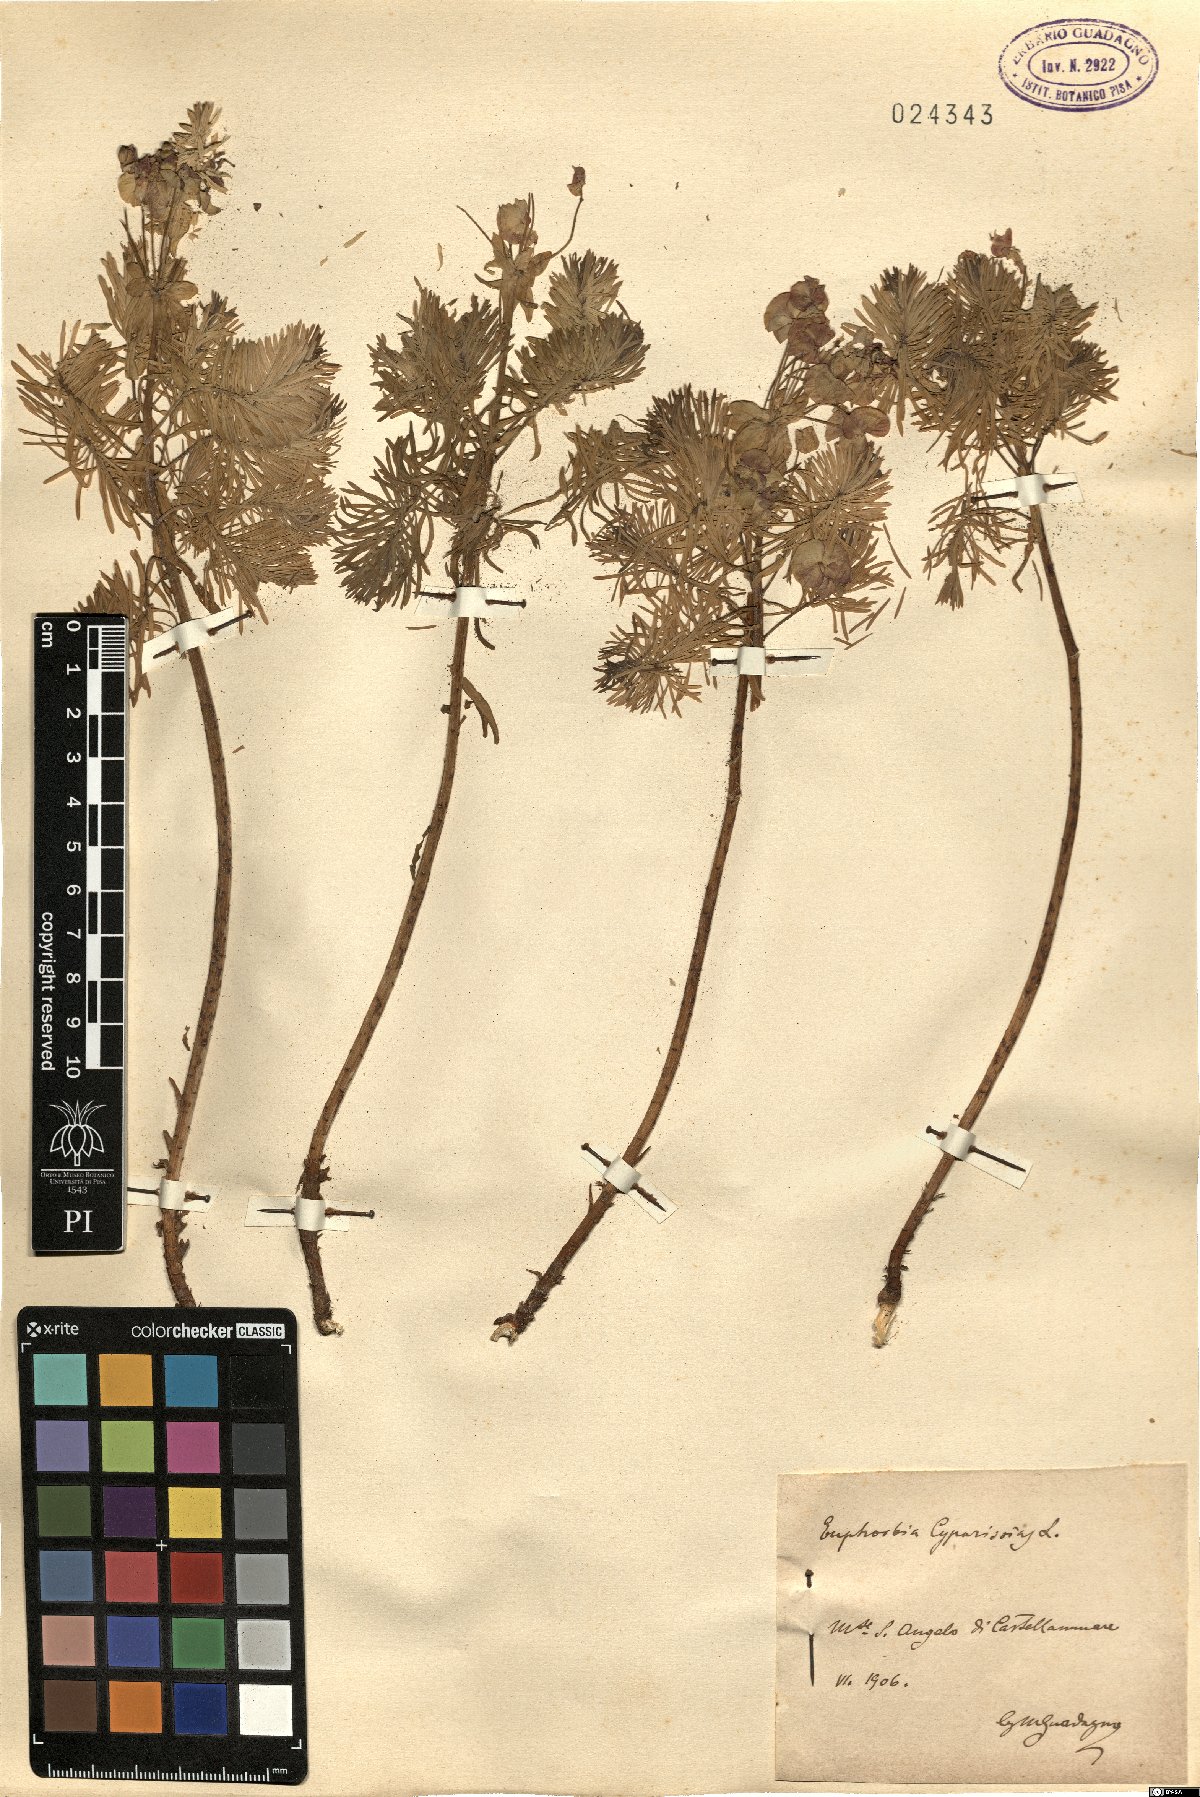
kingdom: Plantae
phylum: Tracheophyta
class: Magnoliopsida
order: Malpighiales
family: Euphorbiaceae
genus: Euphorbia
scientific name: Euphorbia cyparissias
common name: Cypress spurge
